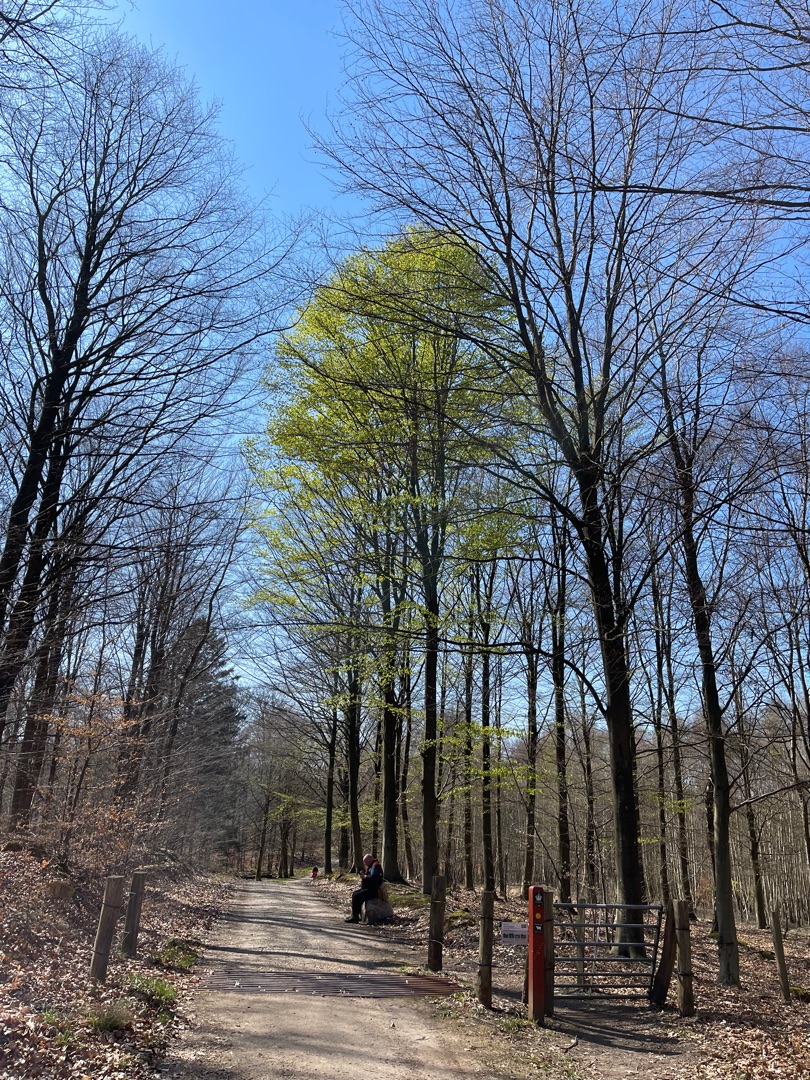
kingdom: Plantae
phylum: Tracheophyta
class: Magnoliopsida
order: Fagales
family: Fagaceae
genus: Fagus
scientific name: Fagus sylvatica
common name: Bøg
